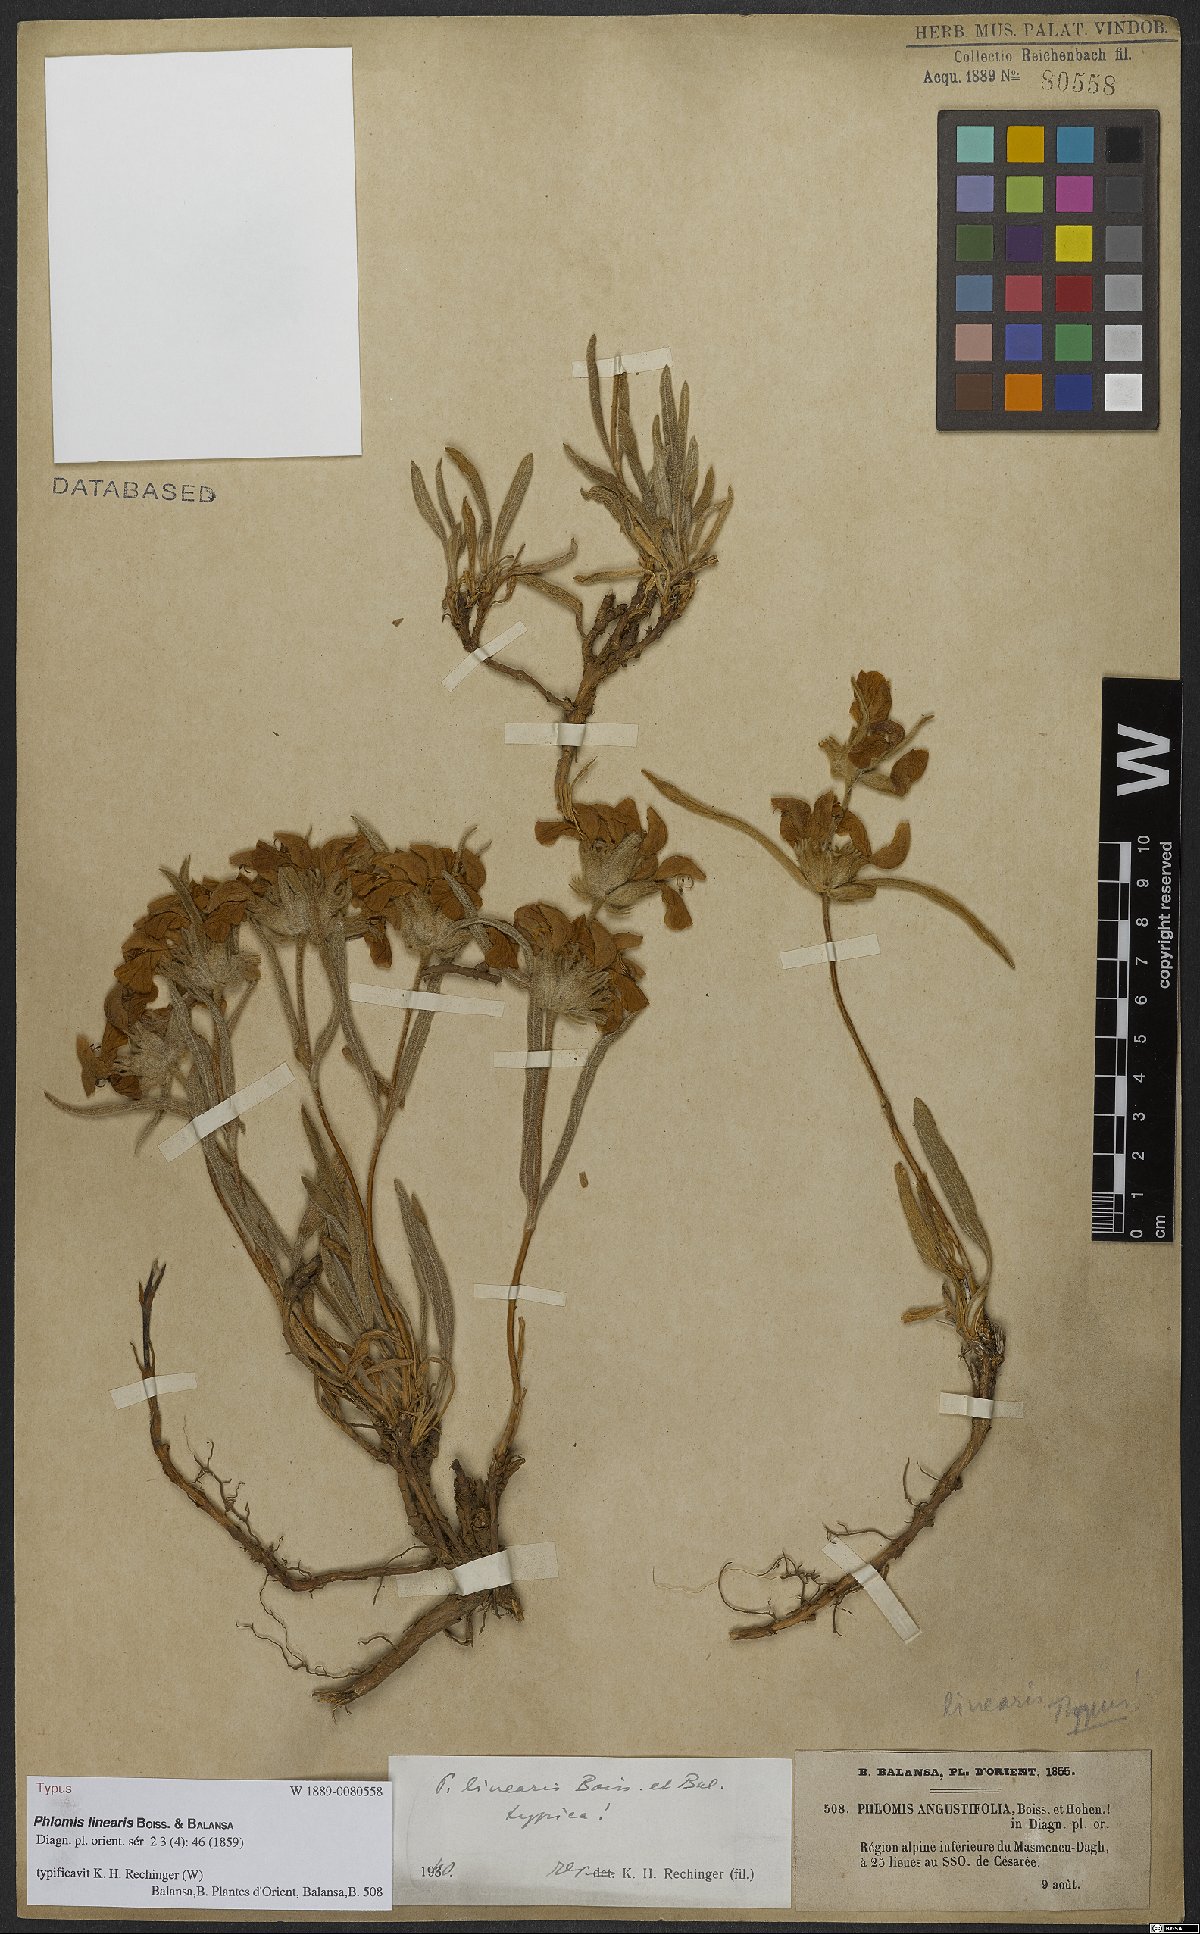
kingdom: Plantae
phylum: Tracheophyta
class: Magnoliopsida
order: Lamiales
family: Lamiaceae
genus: Phlomis
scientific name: Phlomis linearis
